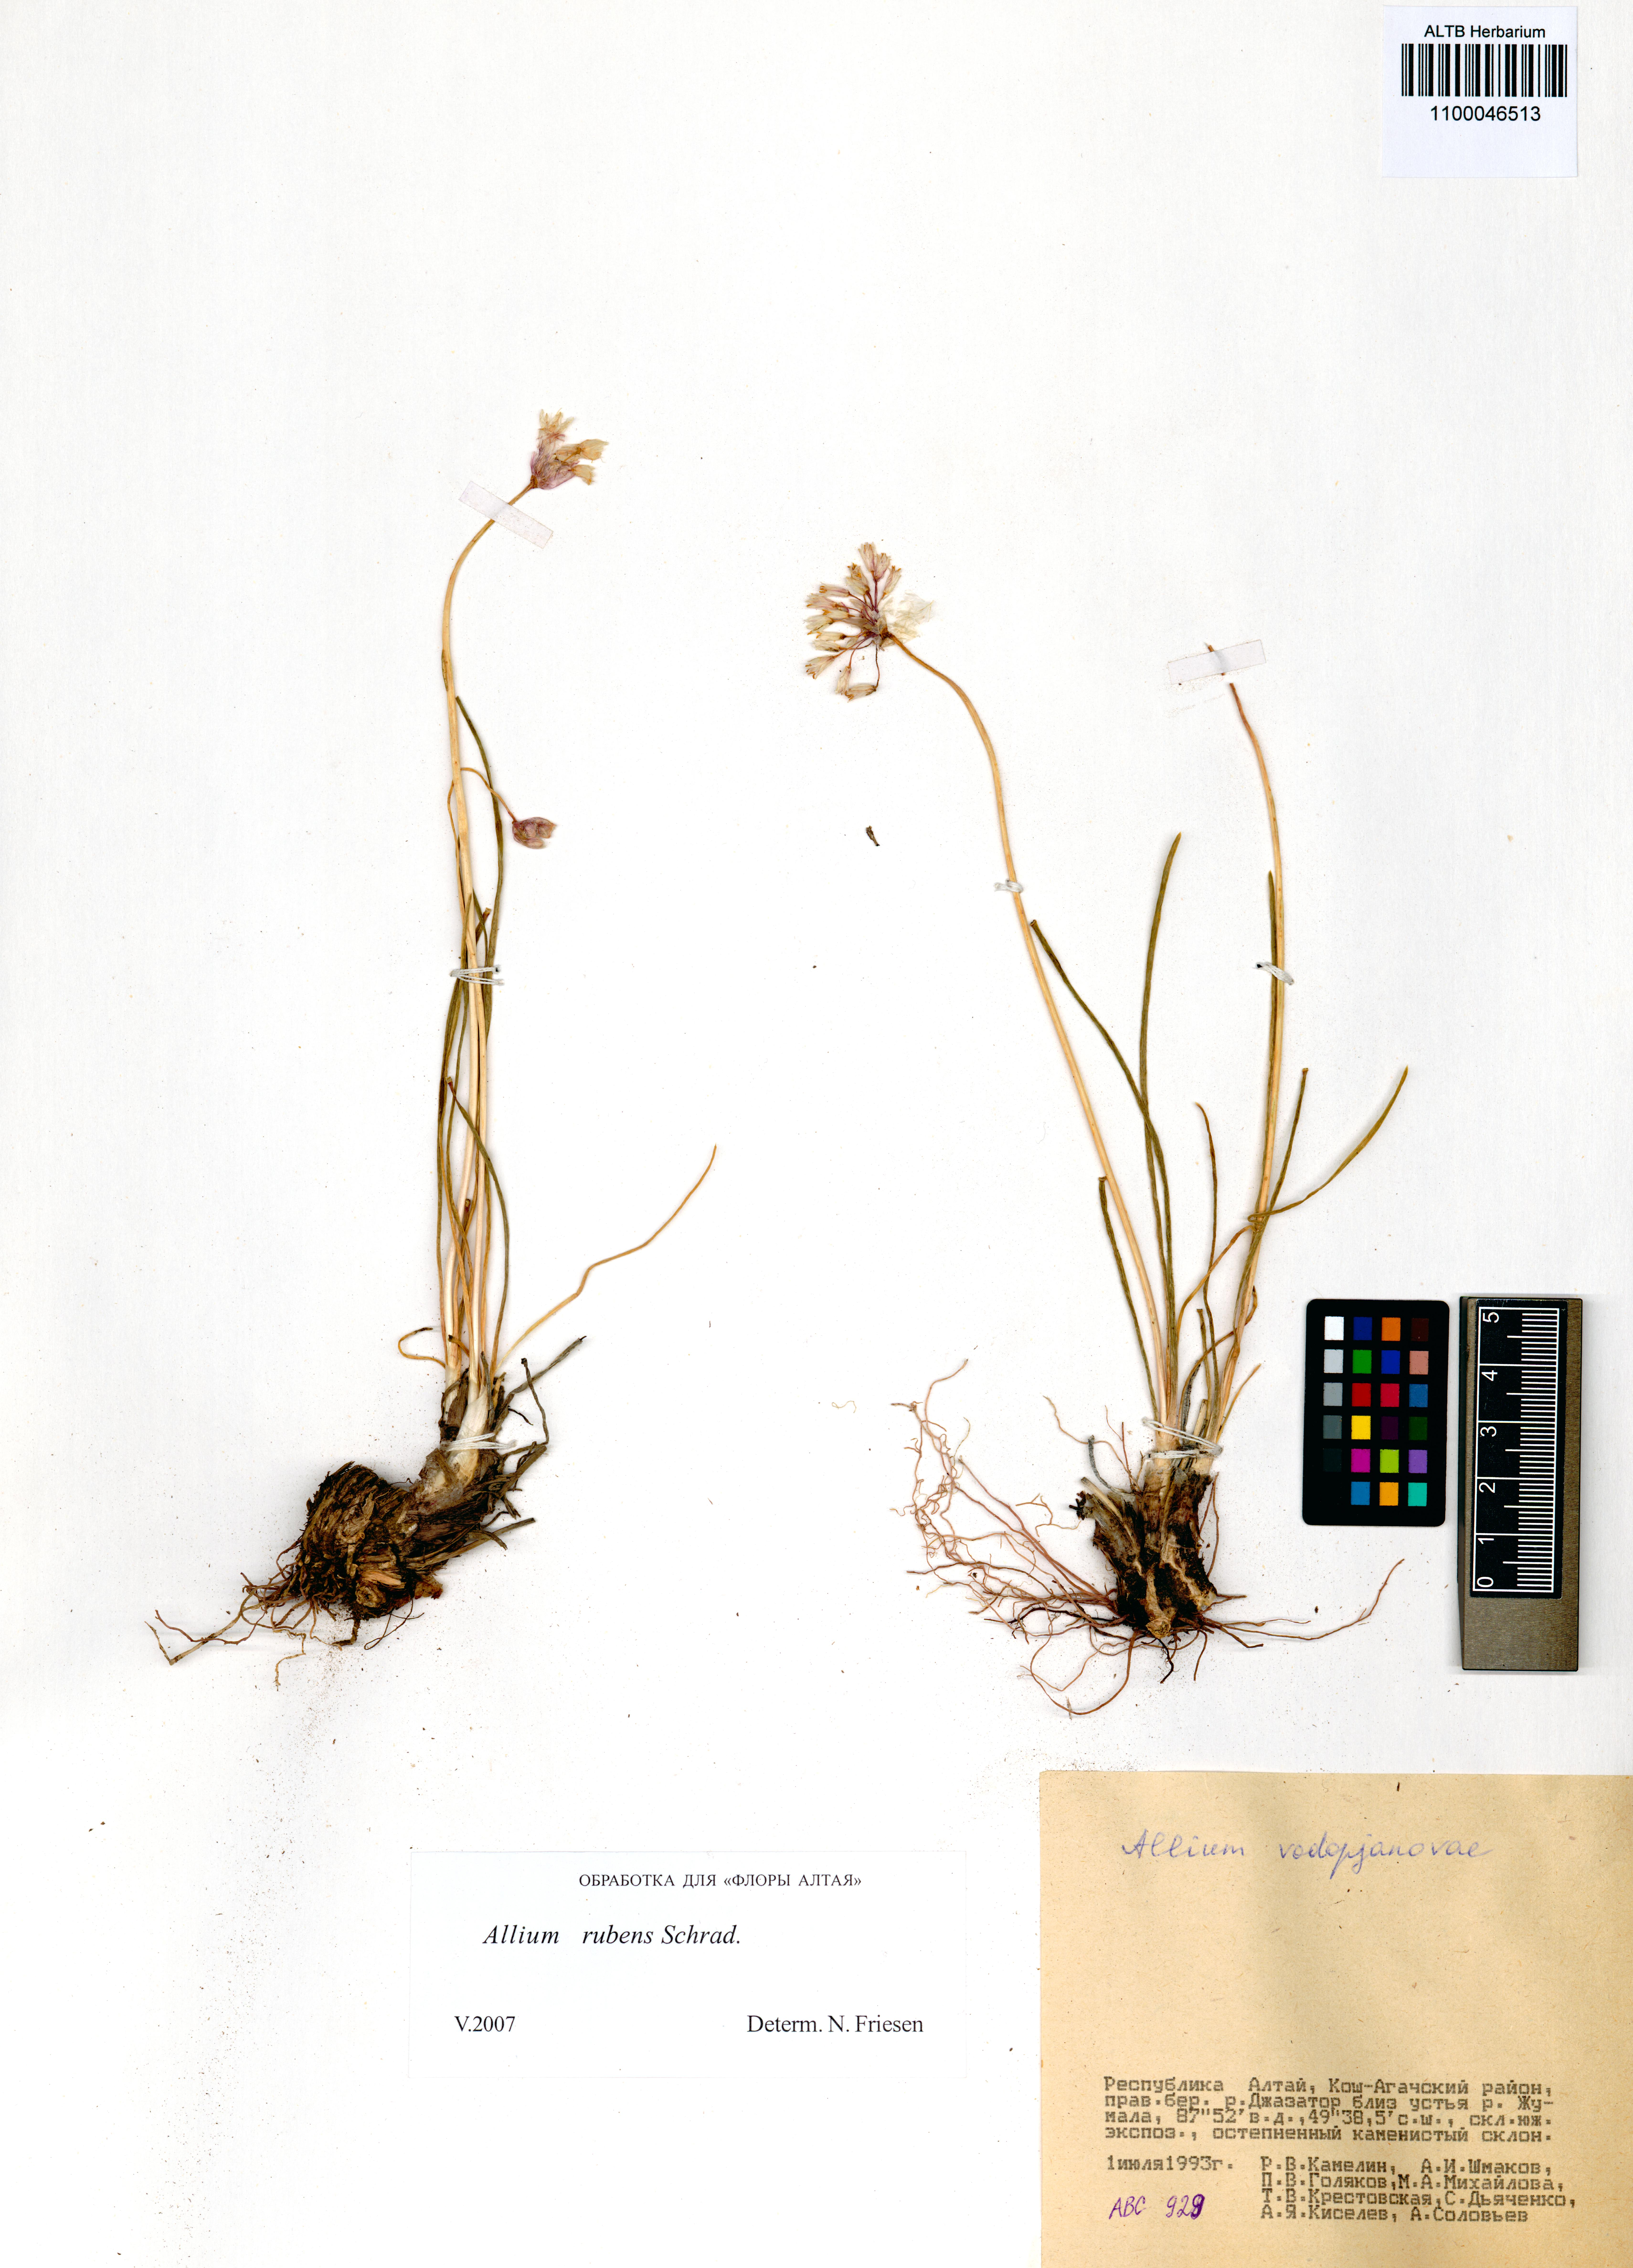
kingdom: Plantae
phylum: Tracheophyta
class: Liliopsida
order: Asparagales
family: Amaryllidaceae
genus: Allium
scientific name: Allium rubens
